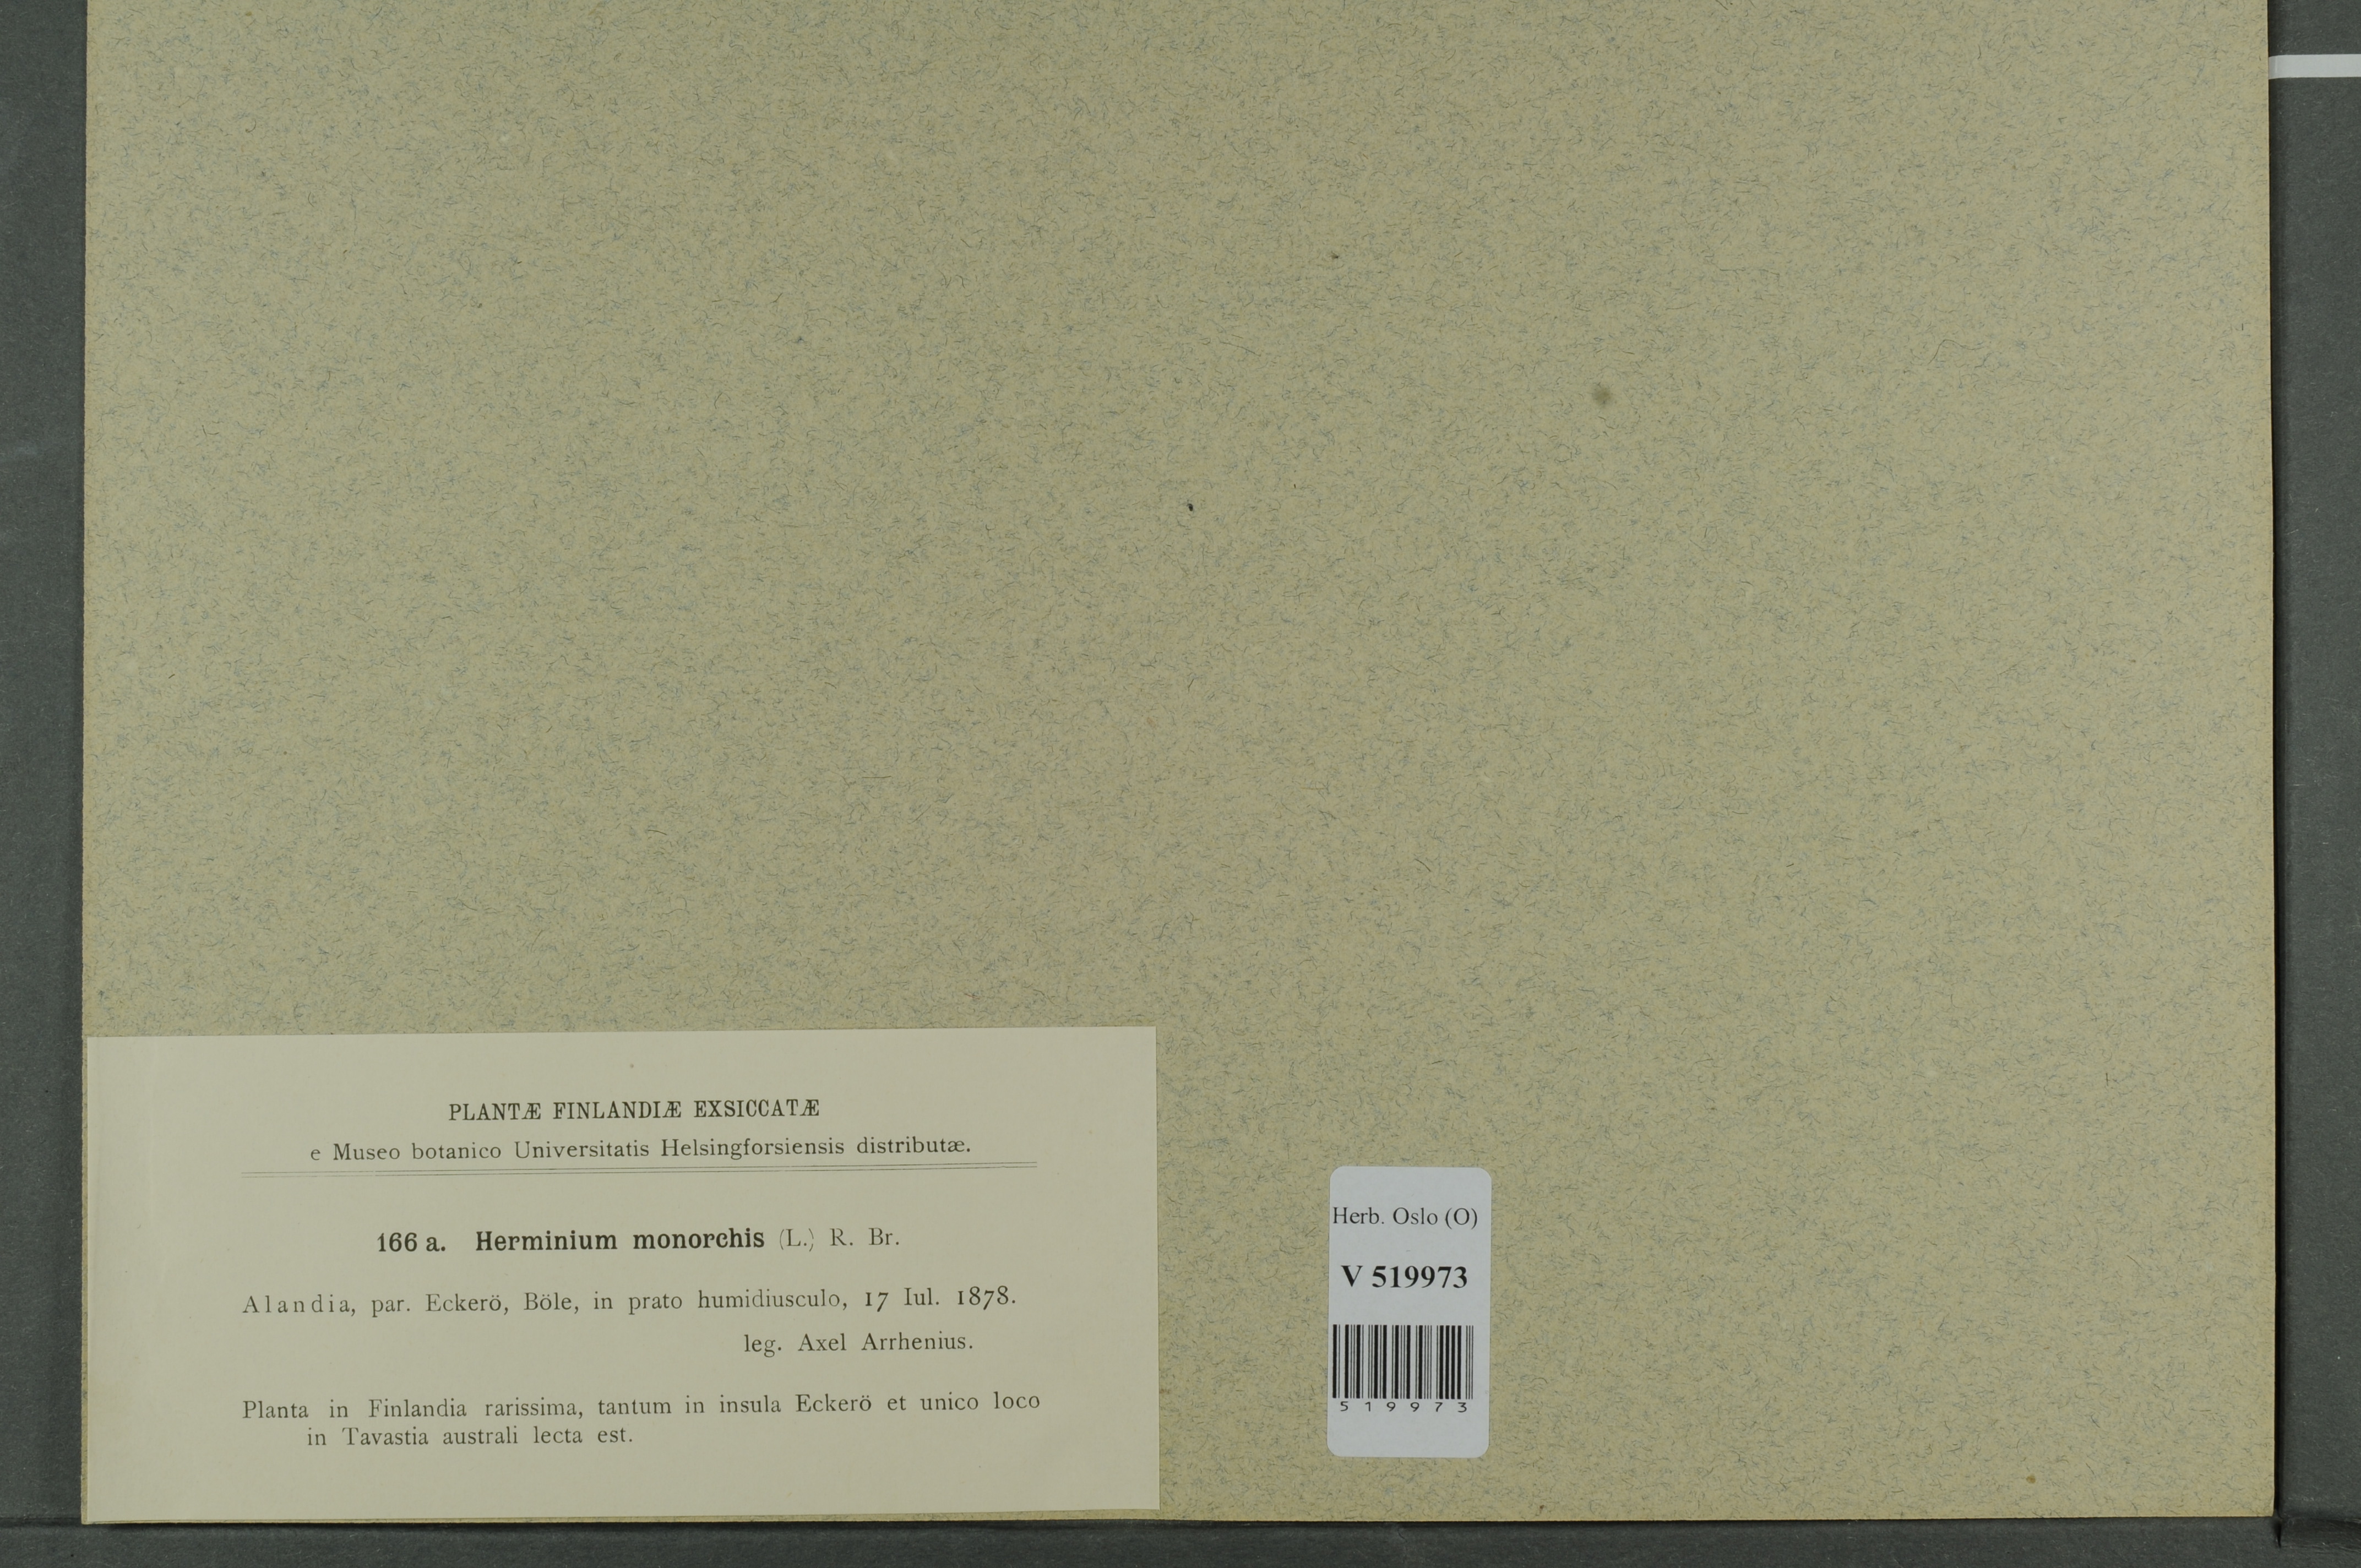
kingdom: Plantae
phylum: Tracheophyta
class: Liliopsida
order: Asparagales
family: Orchidaceae
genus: Herminium
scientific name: Herminium monorchis
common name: Musk orchid
